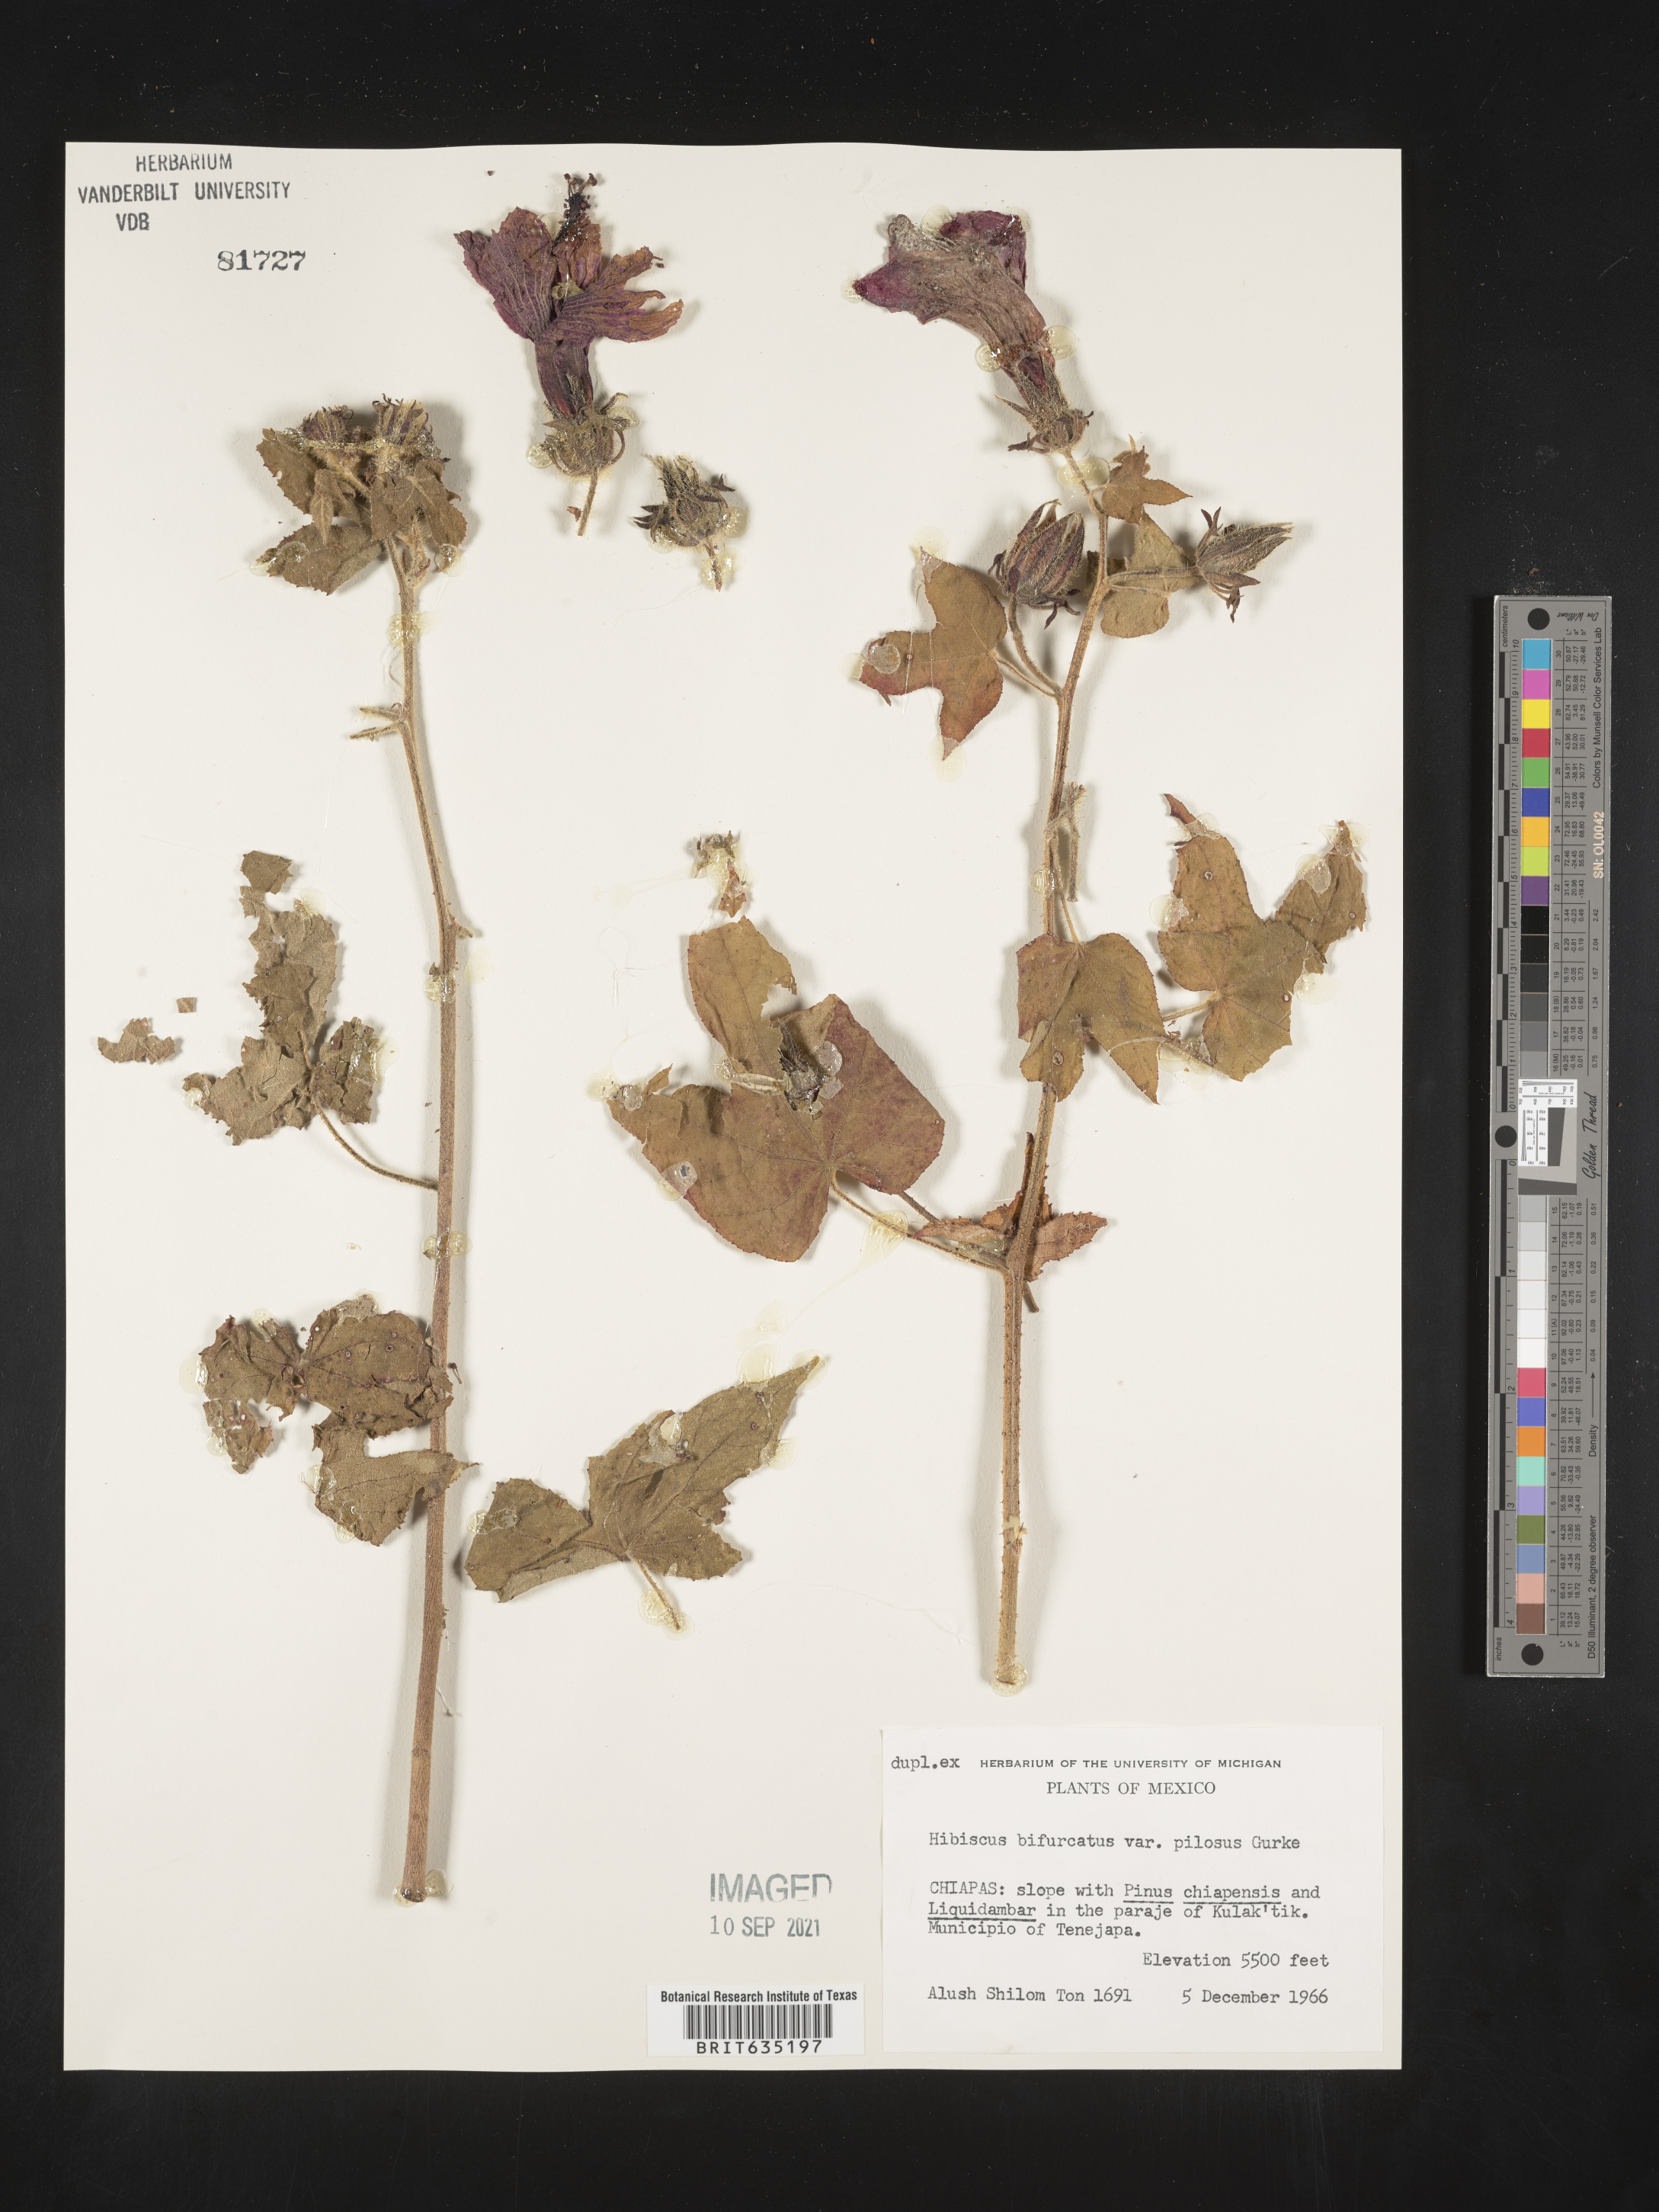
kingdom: Plantae
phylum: Tracheophyta
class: Magnoliopsida
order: Malvales
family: Malvaceae
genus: Hibiscus
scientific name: Hibiscus
